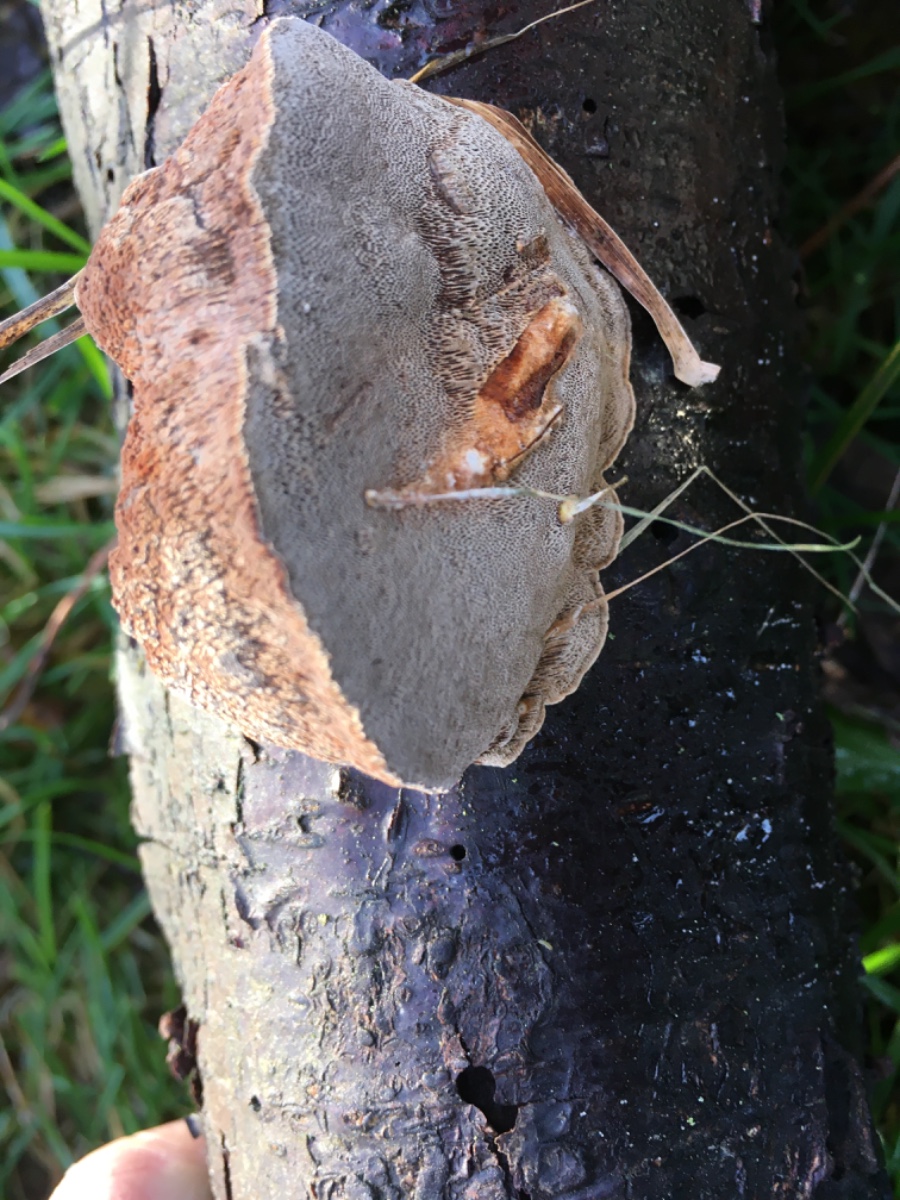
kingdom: Fungi
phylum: Basidiomycota
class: Agaricomycetes
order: Polyporales
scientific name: Polyporales
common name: poresvampordenen
